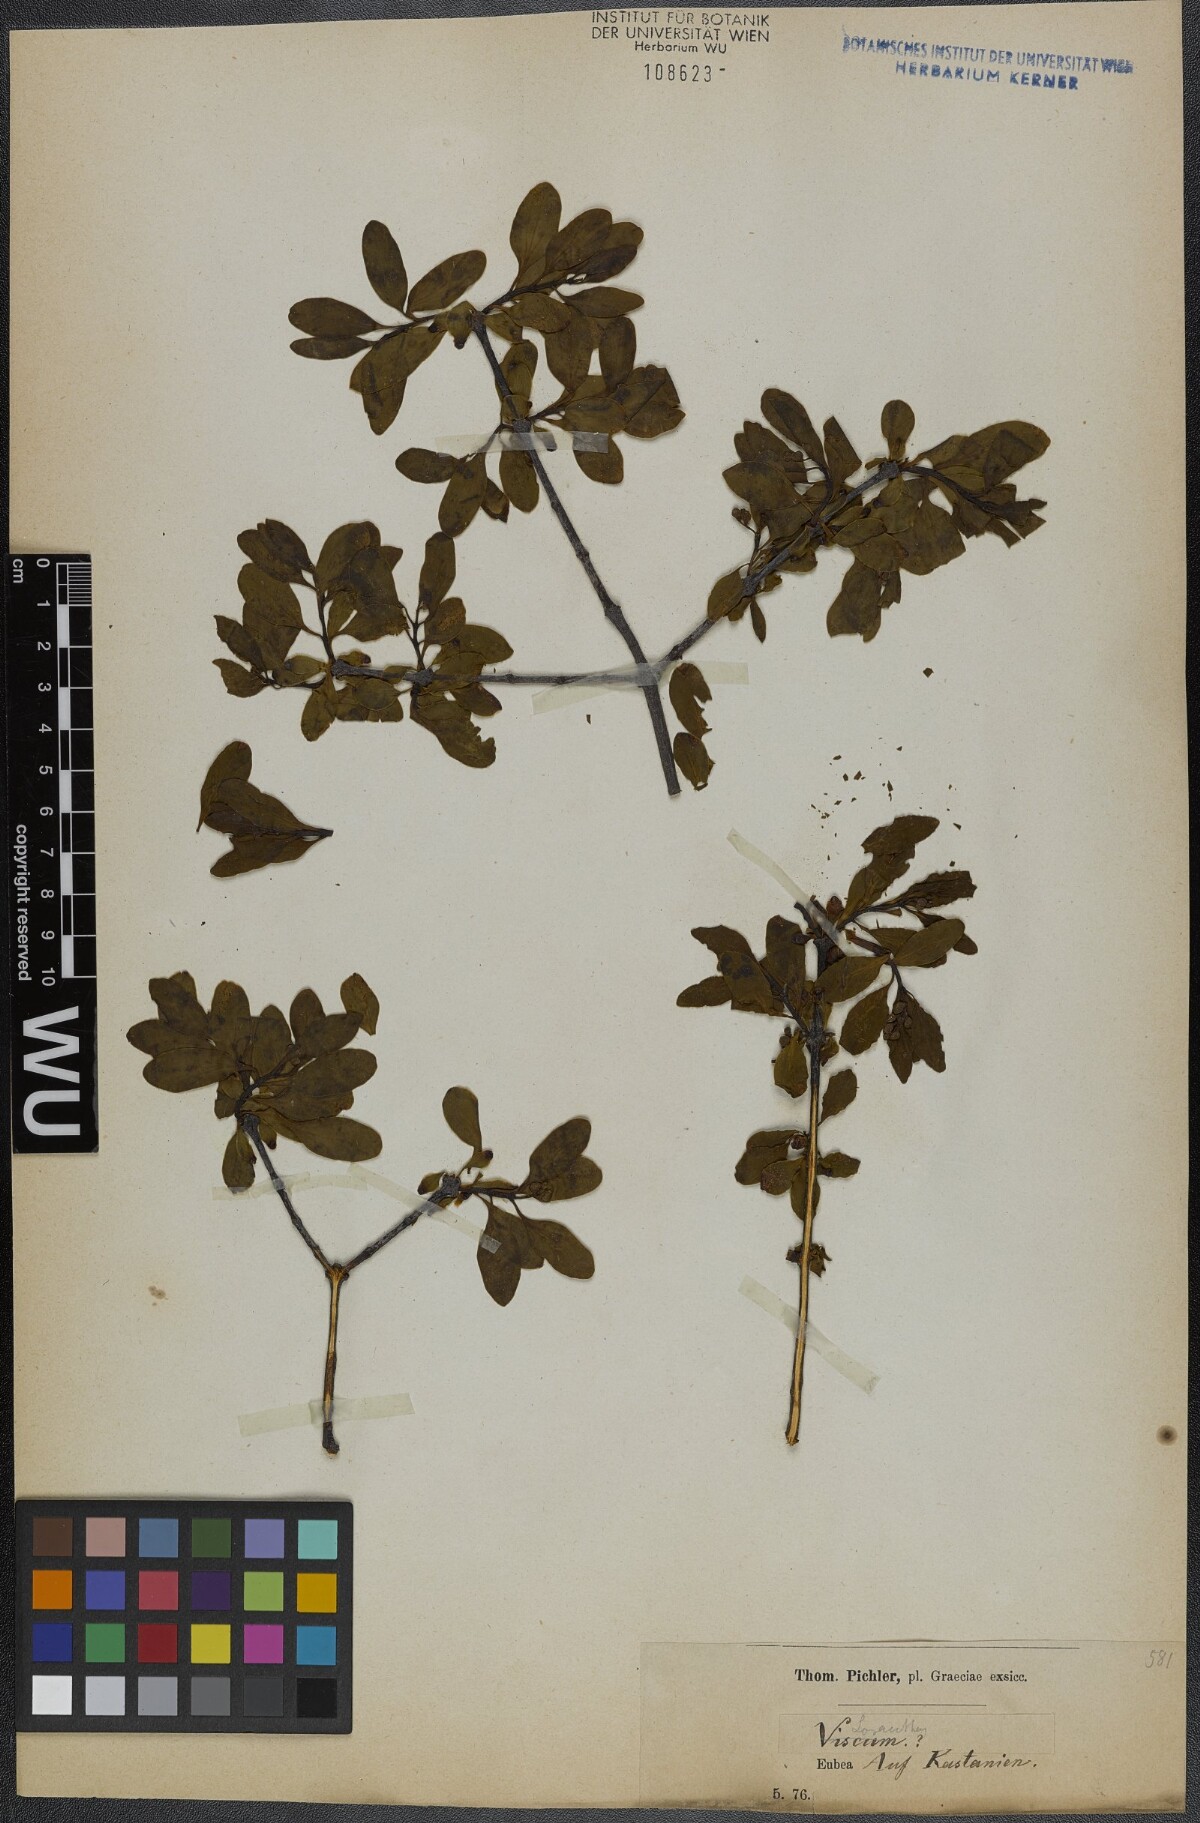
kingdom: Plantae
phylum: Tracheophyta
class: Magnoliopsida
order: Santalales
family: Loranthaceae
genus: Loranthus
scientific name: Loranthus europaeus
